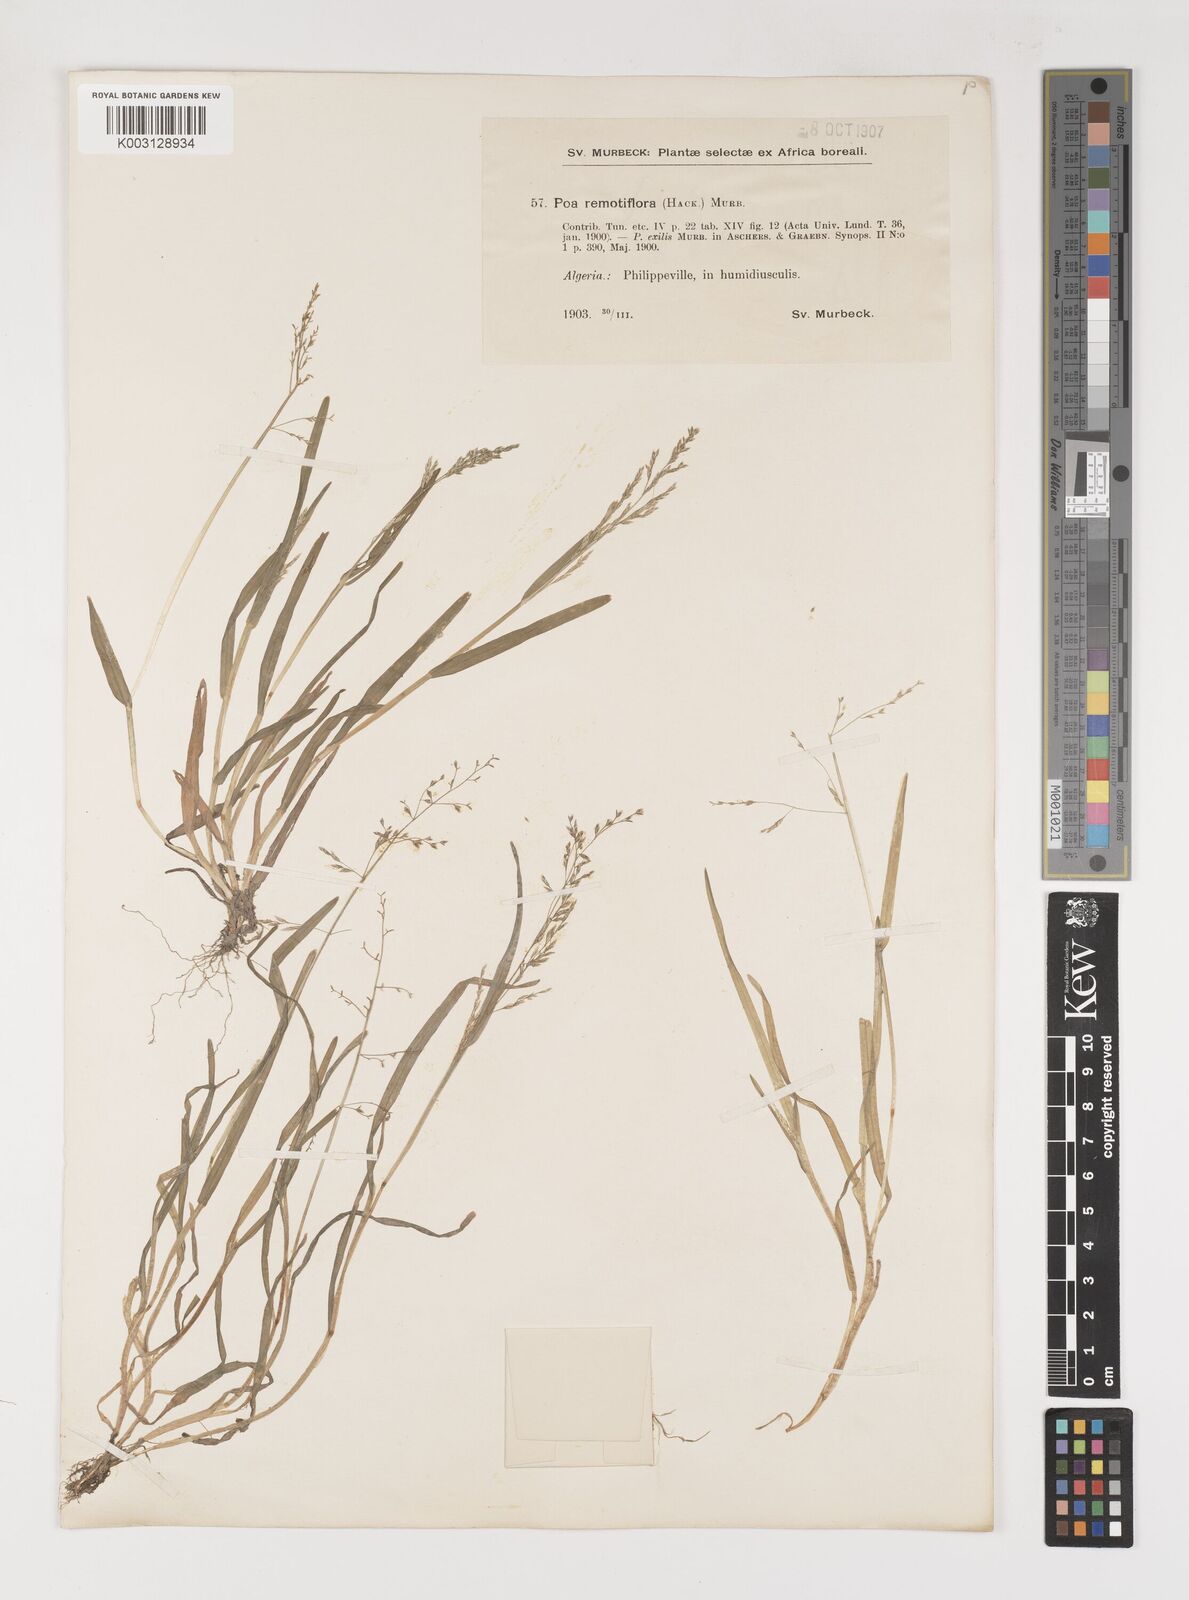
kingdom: Plantae
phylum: Tracheophyta
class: Liliopsida
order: Poales
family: Poaceae
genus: Poa
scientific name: Poa infirma
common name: Weak bluegrass
